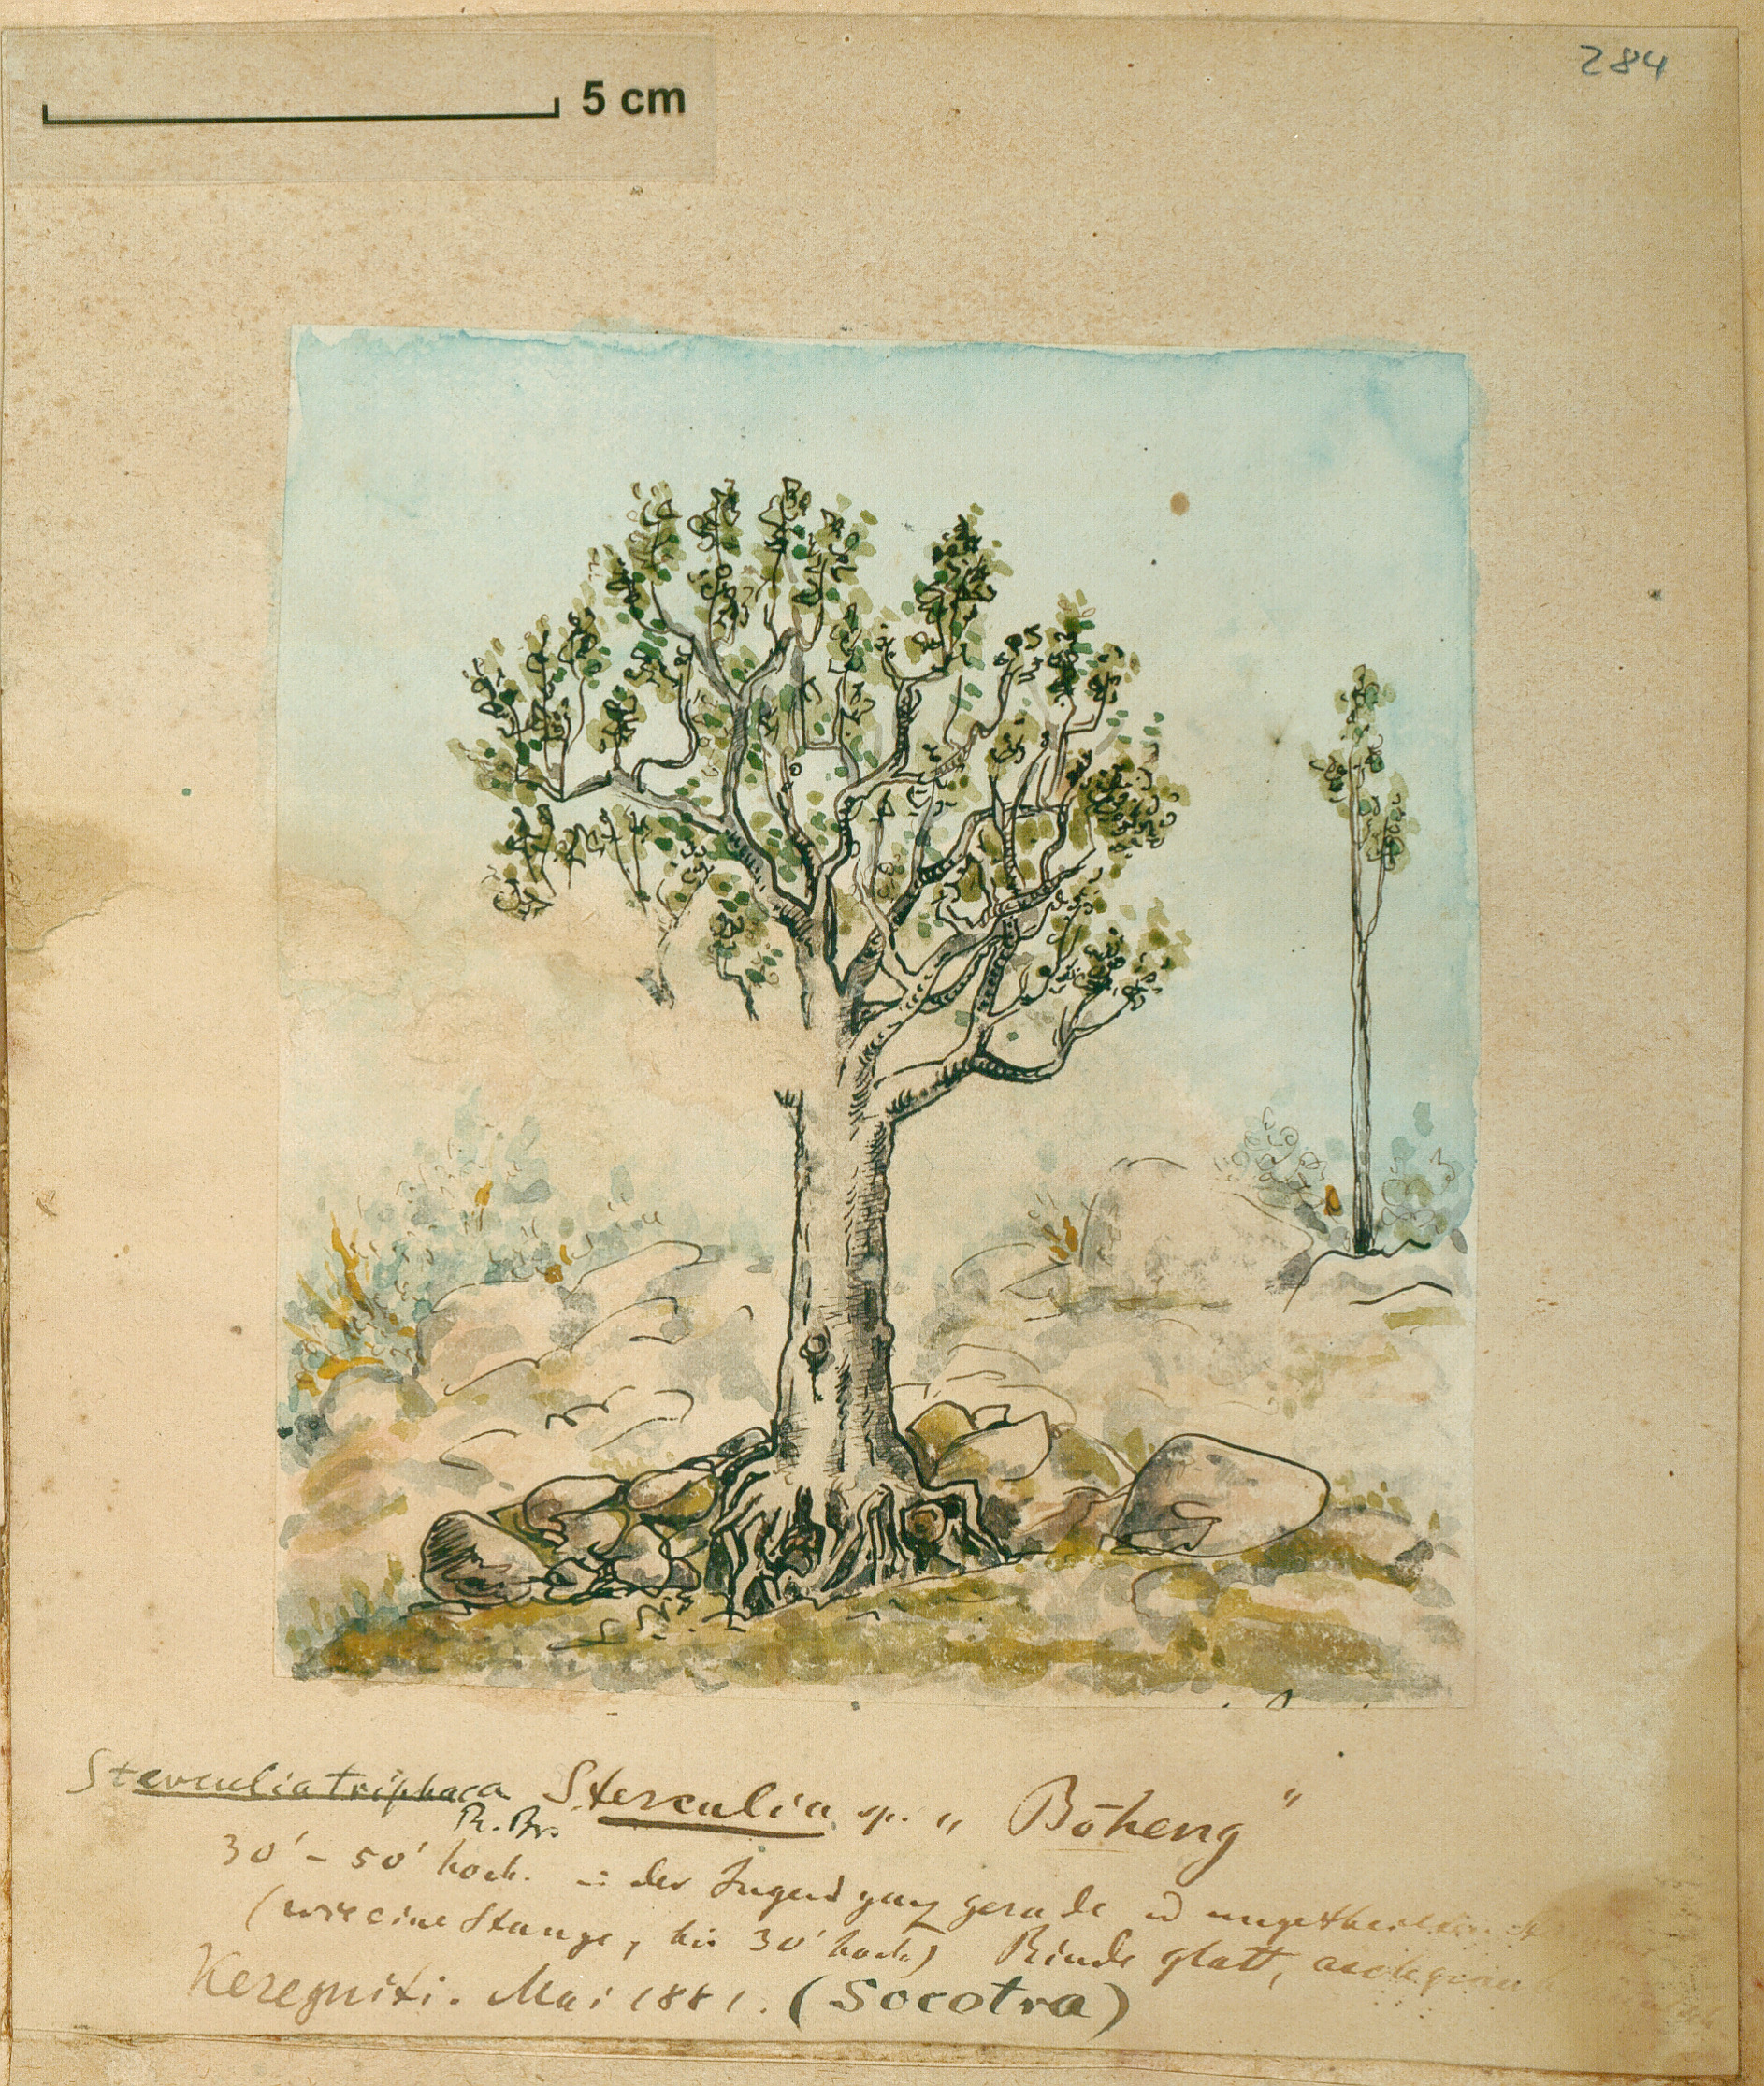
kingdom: Plantae
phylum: Tracheophyta
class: Magnoliopsida
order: Malvales
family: Malvaceae
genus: Sterculia
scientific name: Sterculia africana
